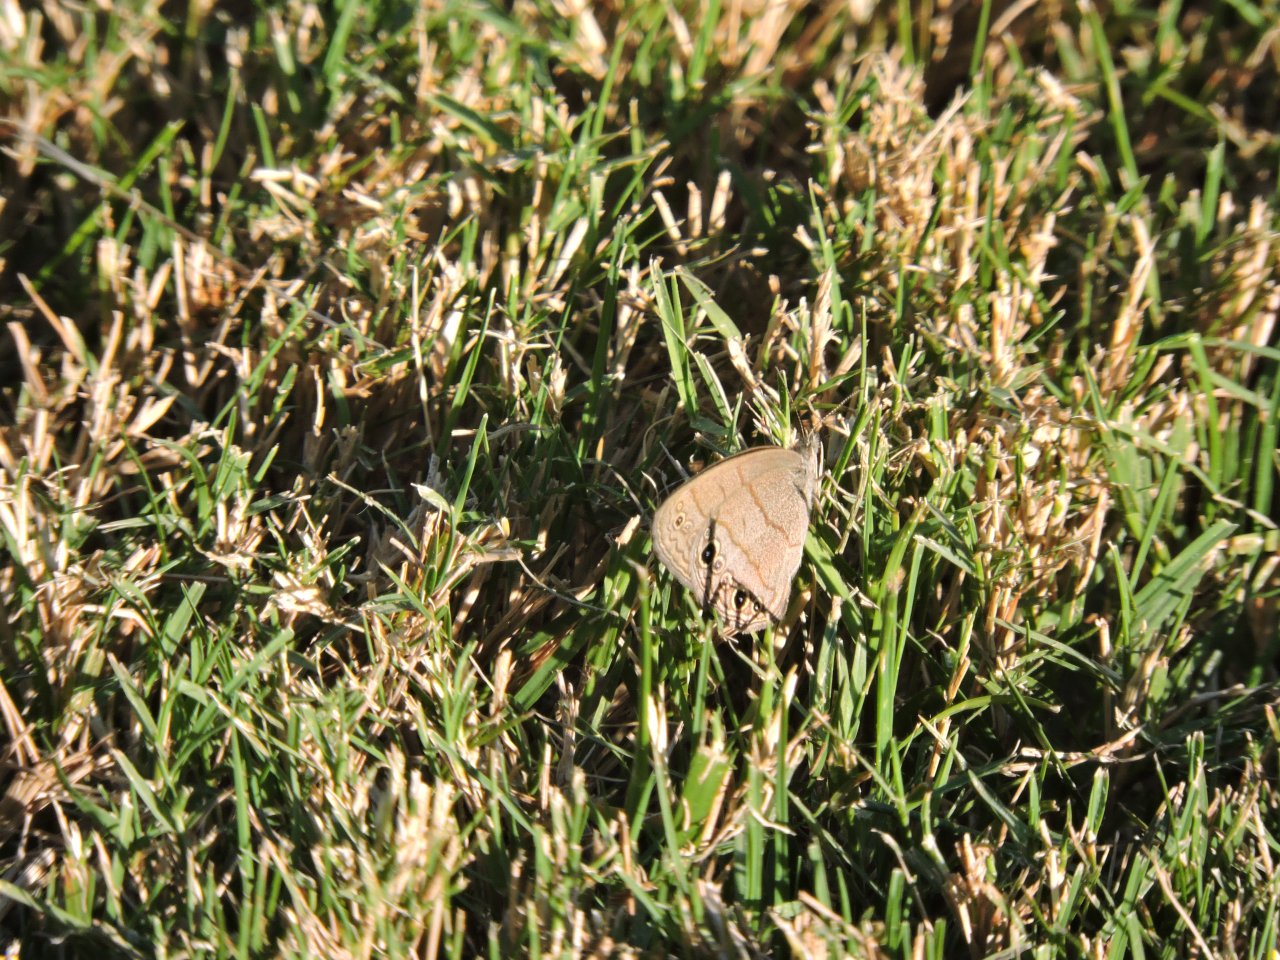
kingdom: Animalia
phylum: Arthropoda
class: Insecta
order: Lepidoptera
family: Nymphalidae
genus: Hermeuptychia
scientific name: Hermeuptychia hermes
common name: Carolina Satyr
